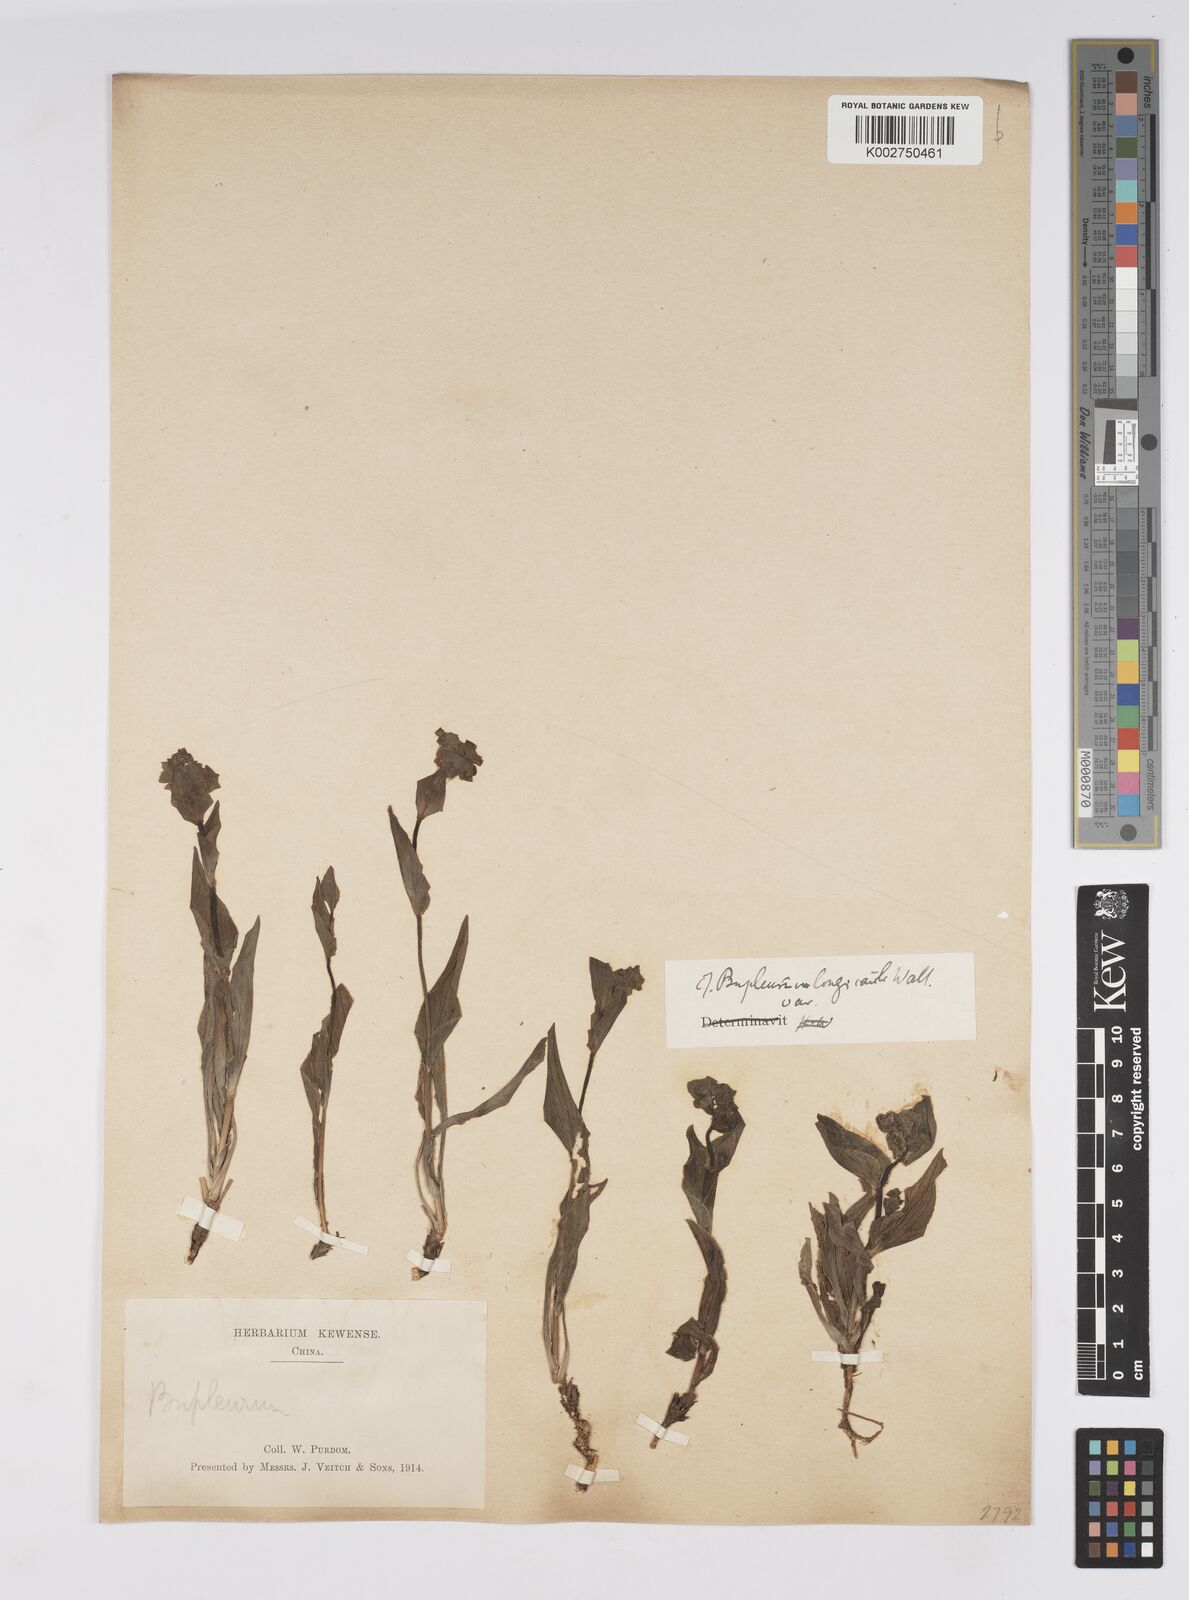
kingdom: Plantae
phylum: Tracheophyta
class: Magnoliopsida
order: Apiales
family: Apiaceae
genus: Bupleurum
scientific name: Bupleurum longicaule
